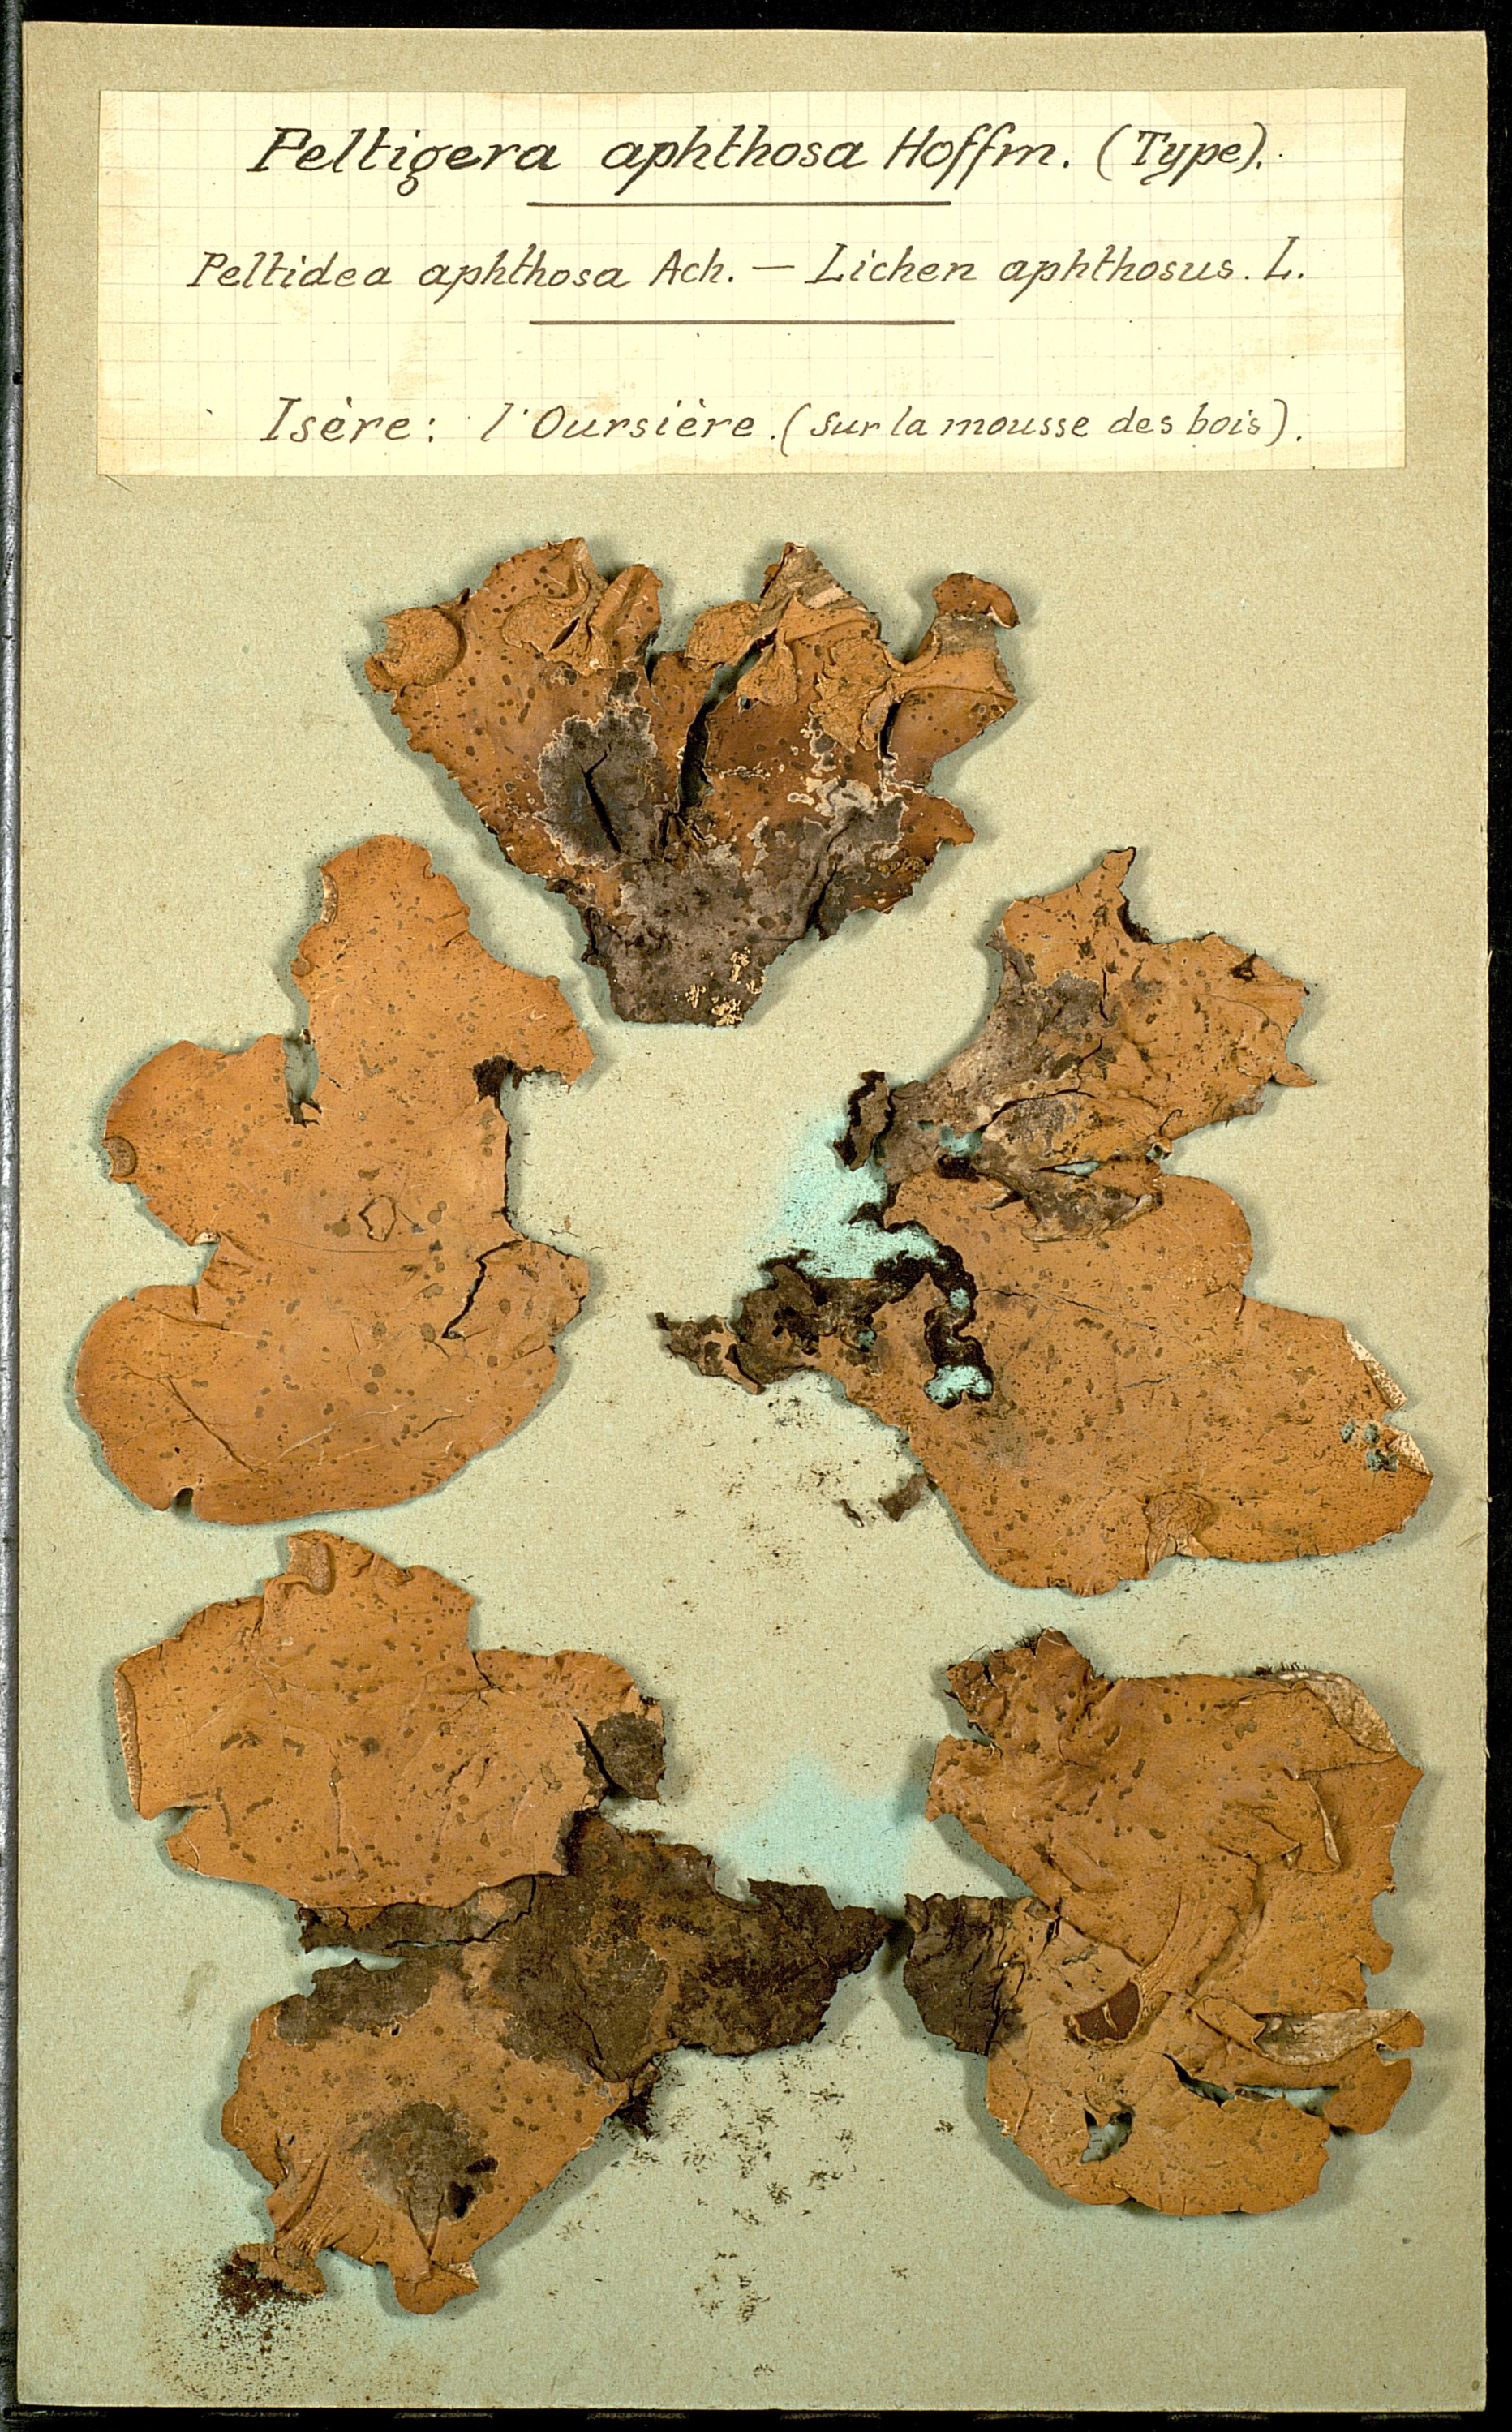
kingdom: Fungi
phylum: Ascomycota
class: Lecanoromycetes
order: Peltigerales
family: Peltigeraceae
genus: Peltigera
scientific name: Peltigera aphthosa
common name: Common freckle pelt lichen
